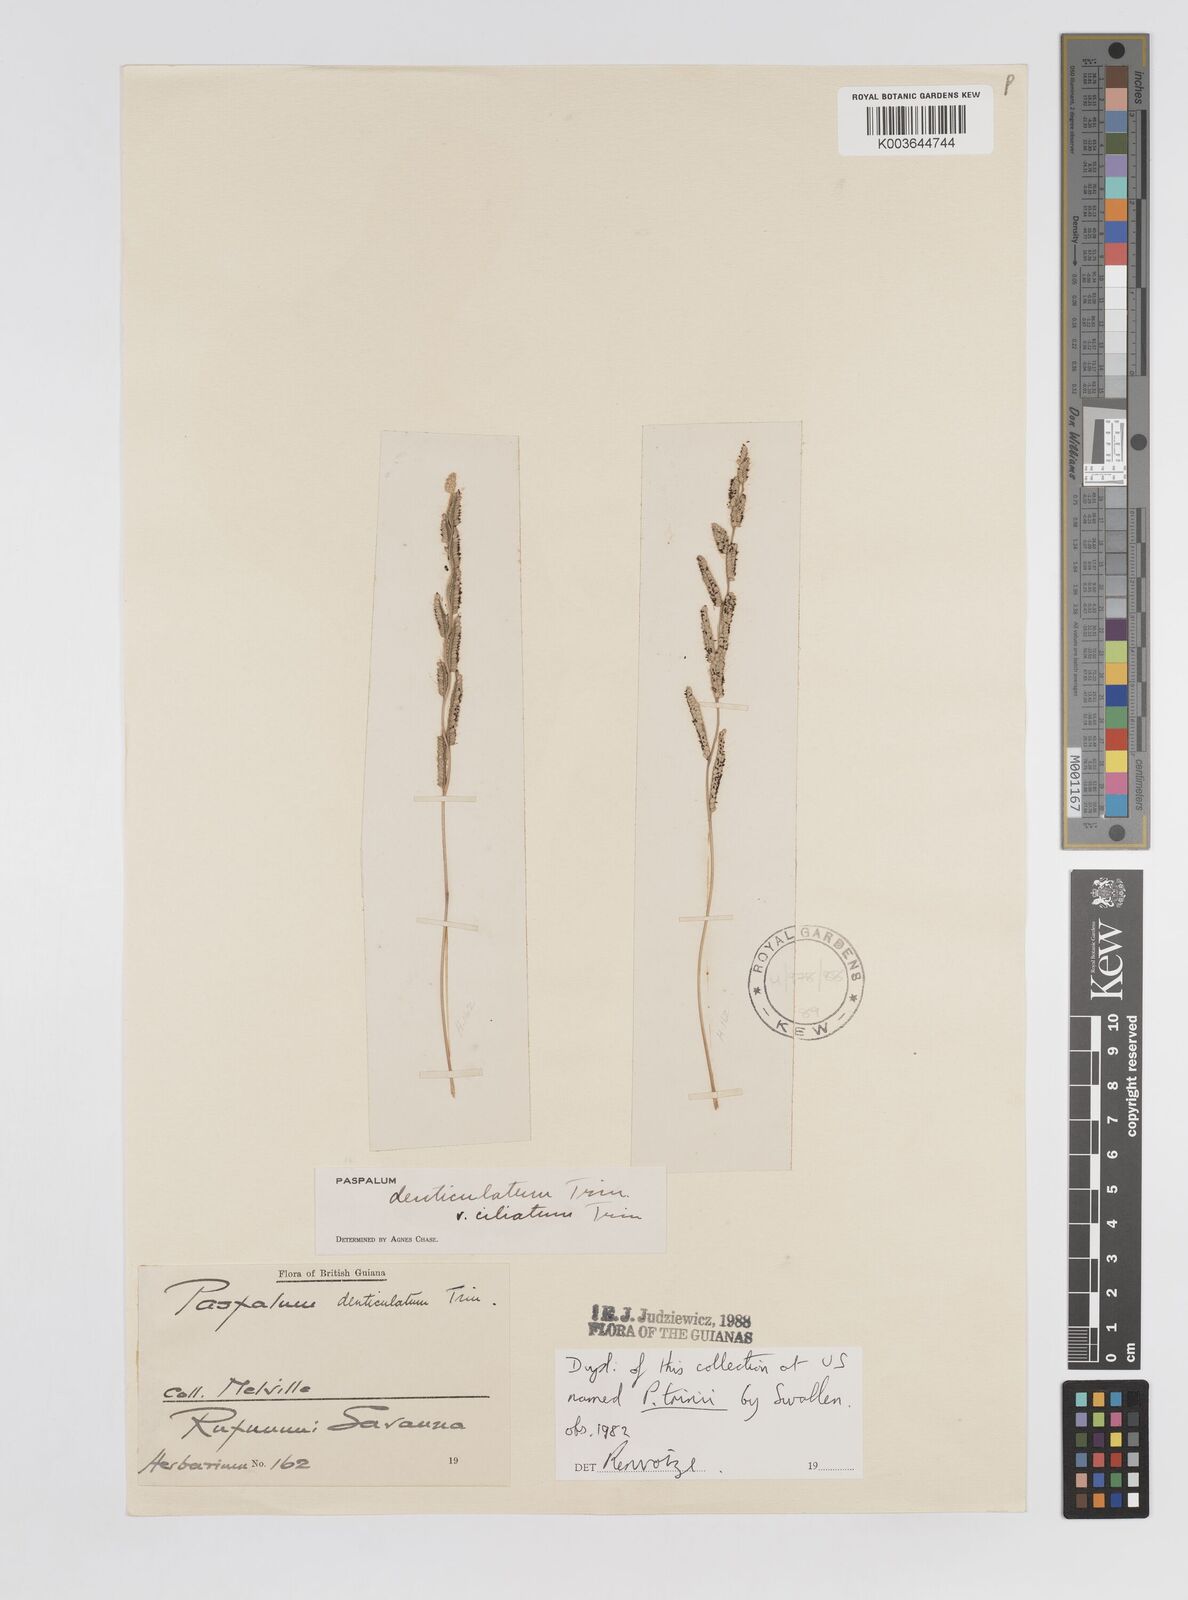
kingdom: Plantae
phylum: Tracheophyta
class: Liliopsida
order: Poales
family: Poaceae
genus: Paspalum
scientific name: Paspalum trinii
